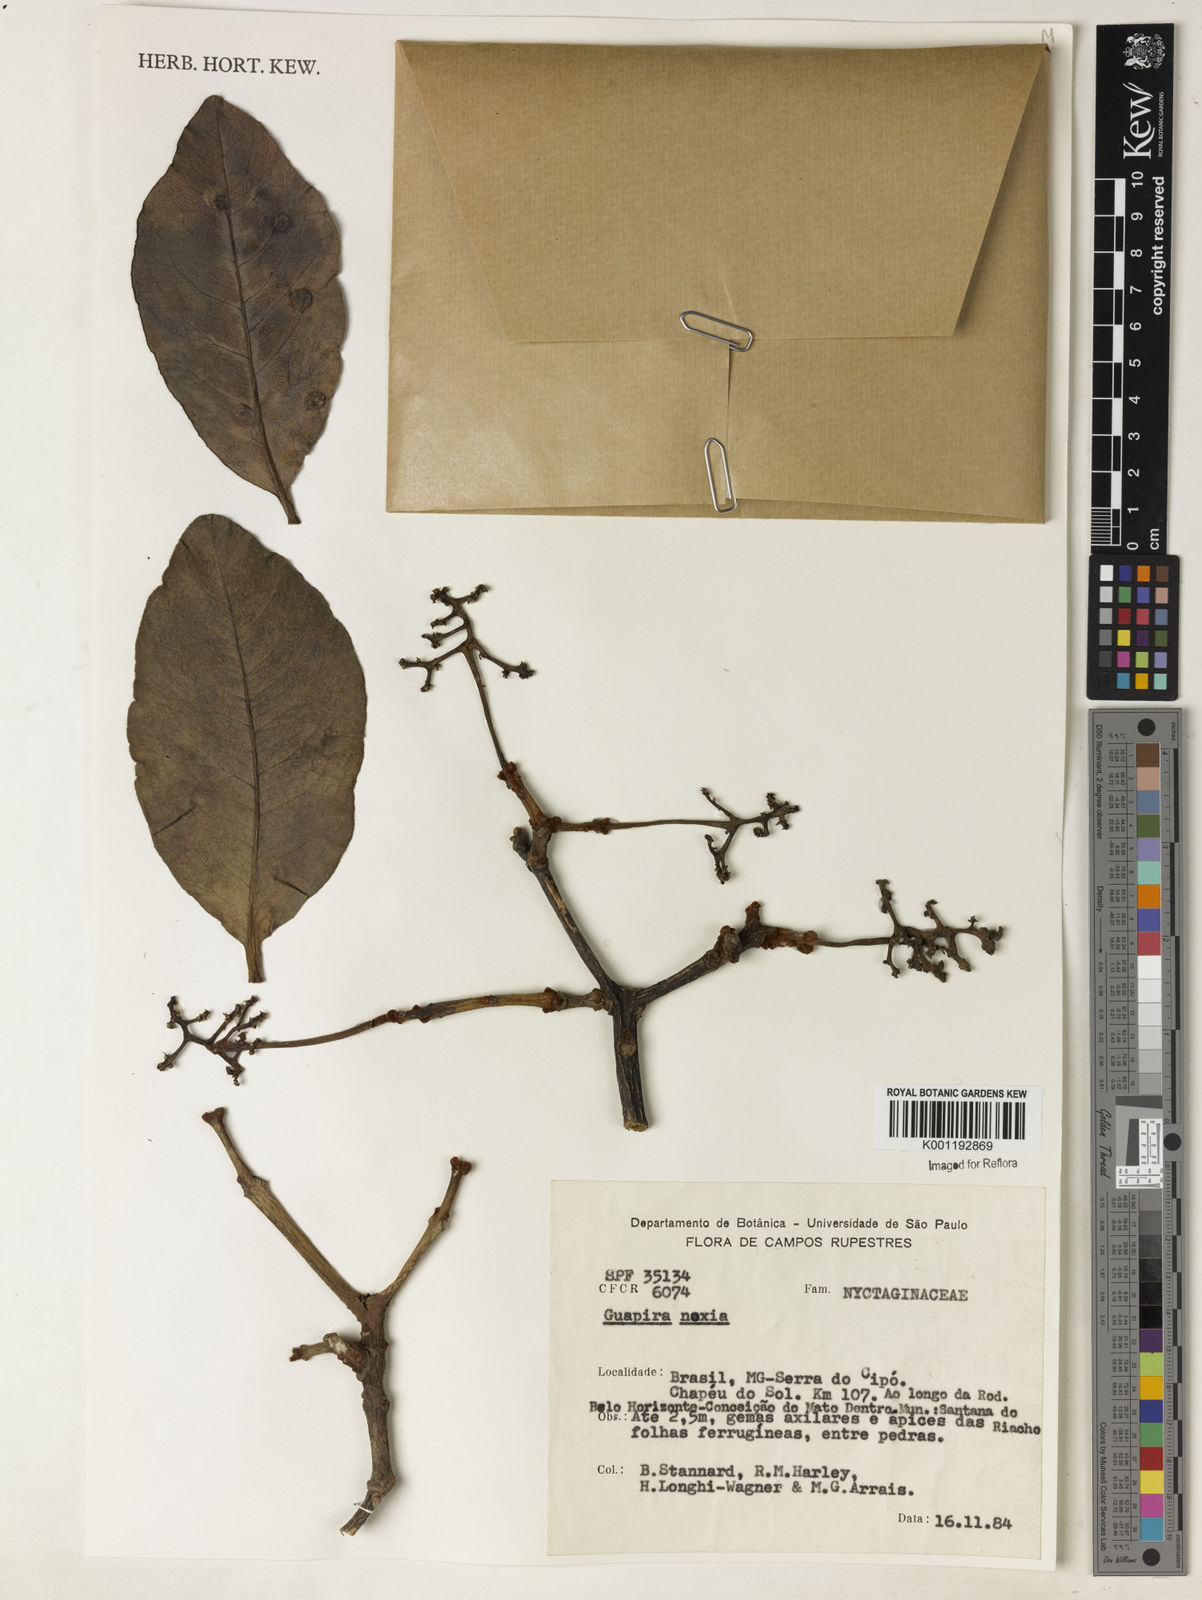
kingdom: Plantae
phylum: Tracheophyta
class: Magnoliopsida
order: Caryophyllales
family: Nyctaginaceae
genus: Guapira
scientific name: Guapira noxia
